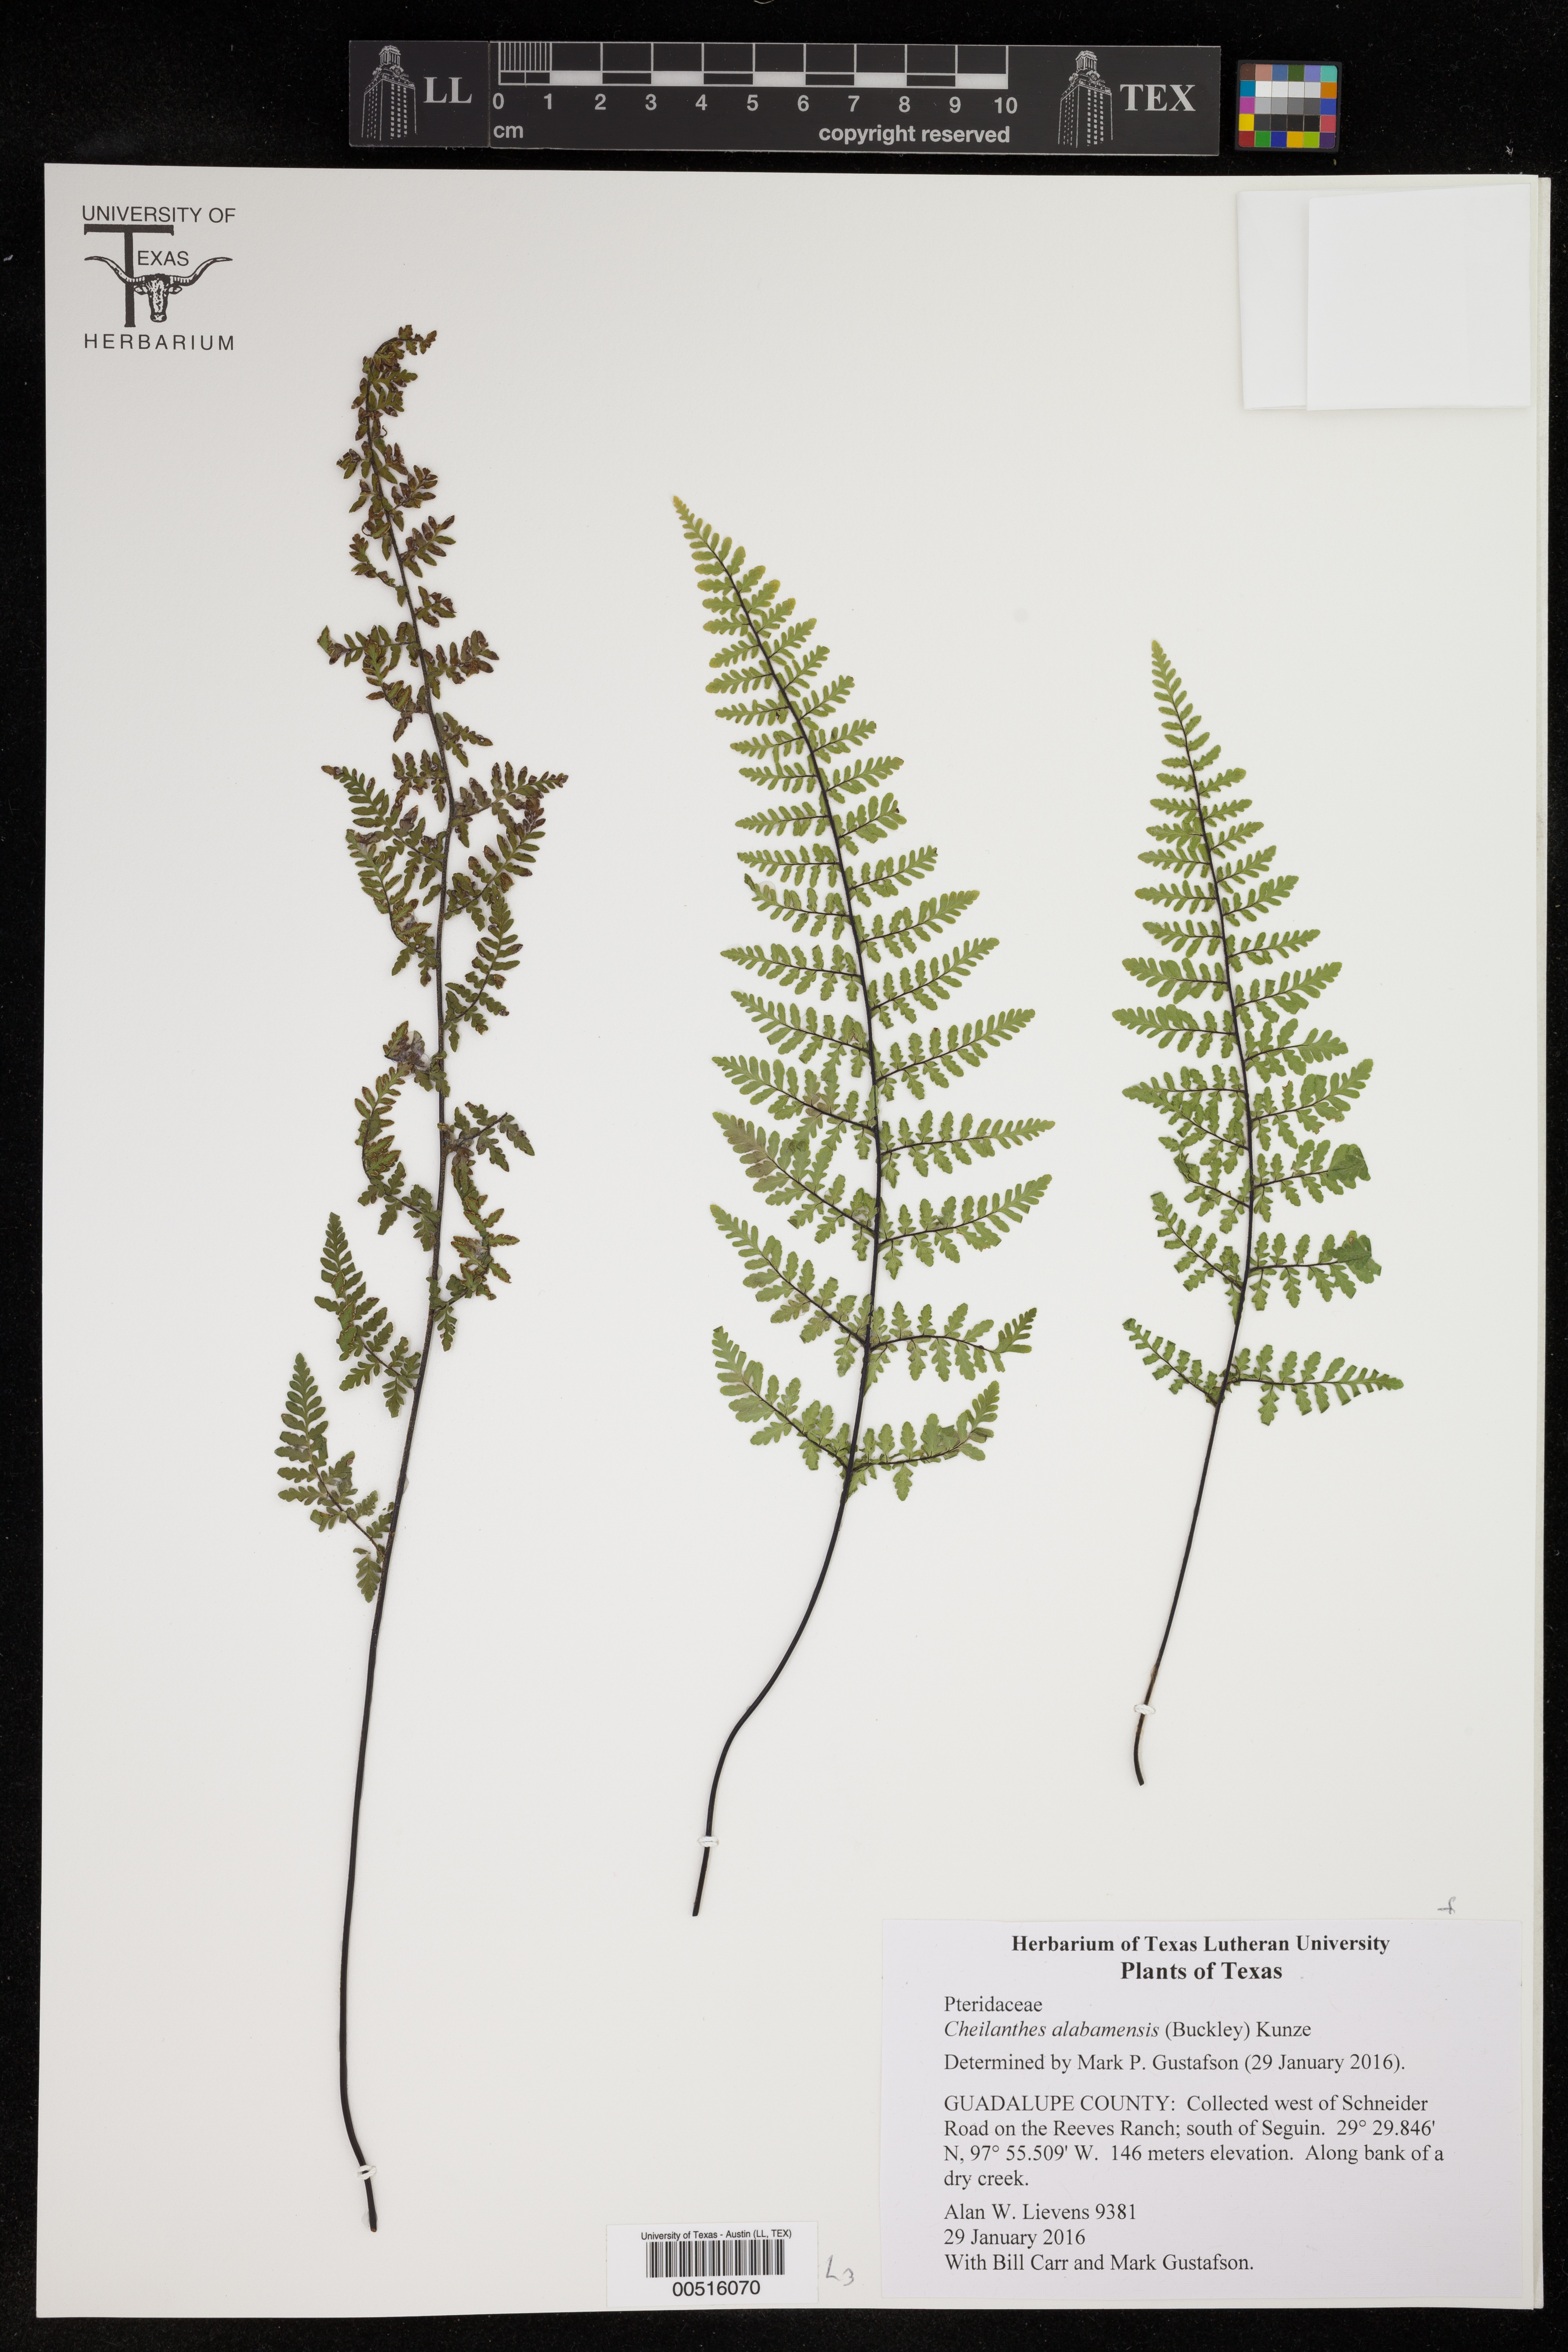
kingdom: Plantae
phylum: Tracheophyta
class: Polypodiopsida
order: Polypodiales
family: Pteridaceae
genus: Myriopteris
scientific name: Myriopteris alabamensis
